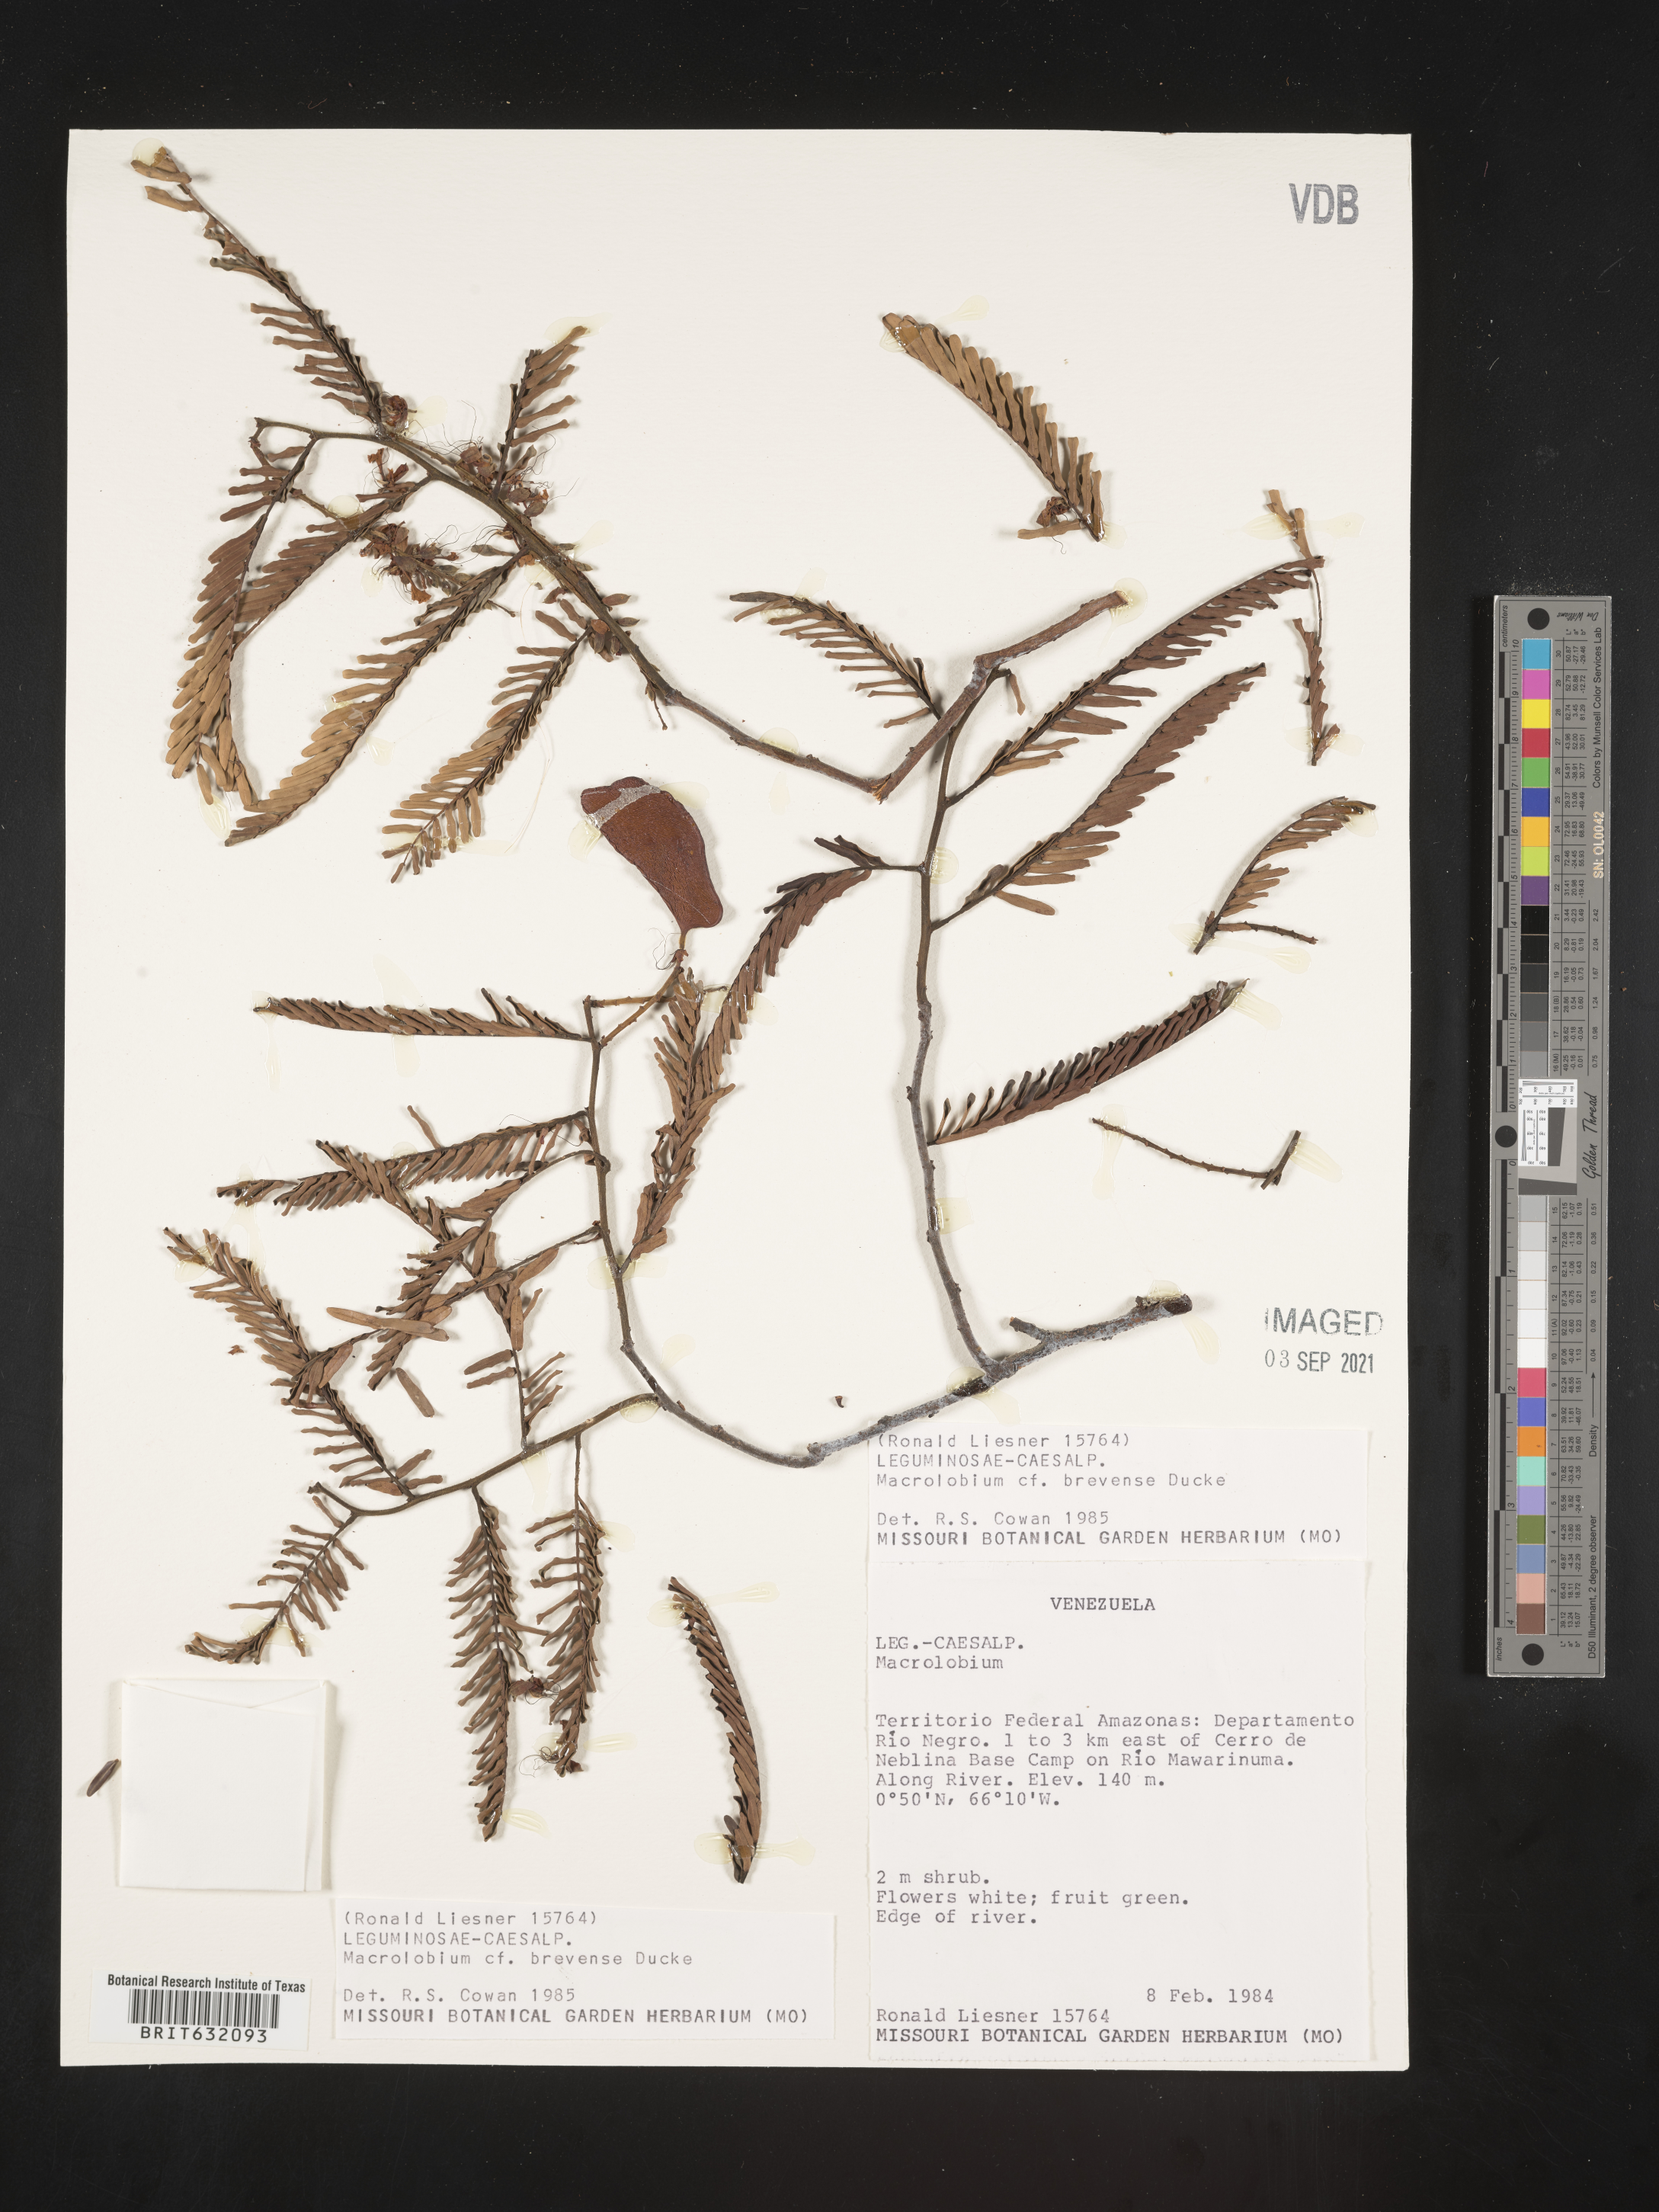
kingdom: Plantae
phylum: Tracheophyta
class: Magnoliopsida
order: Fabales
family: Fabaceae
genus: Macrolobium
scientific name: Macrolobium
